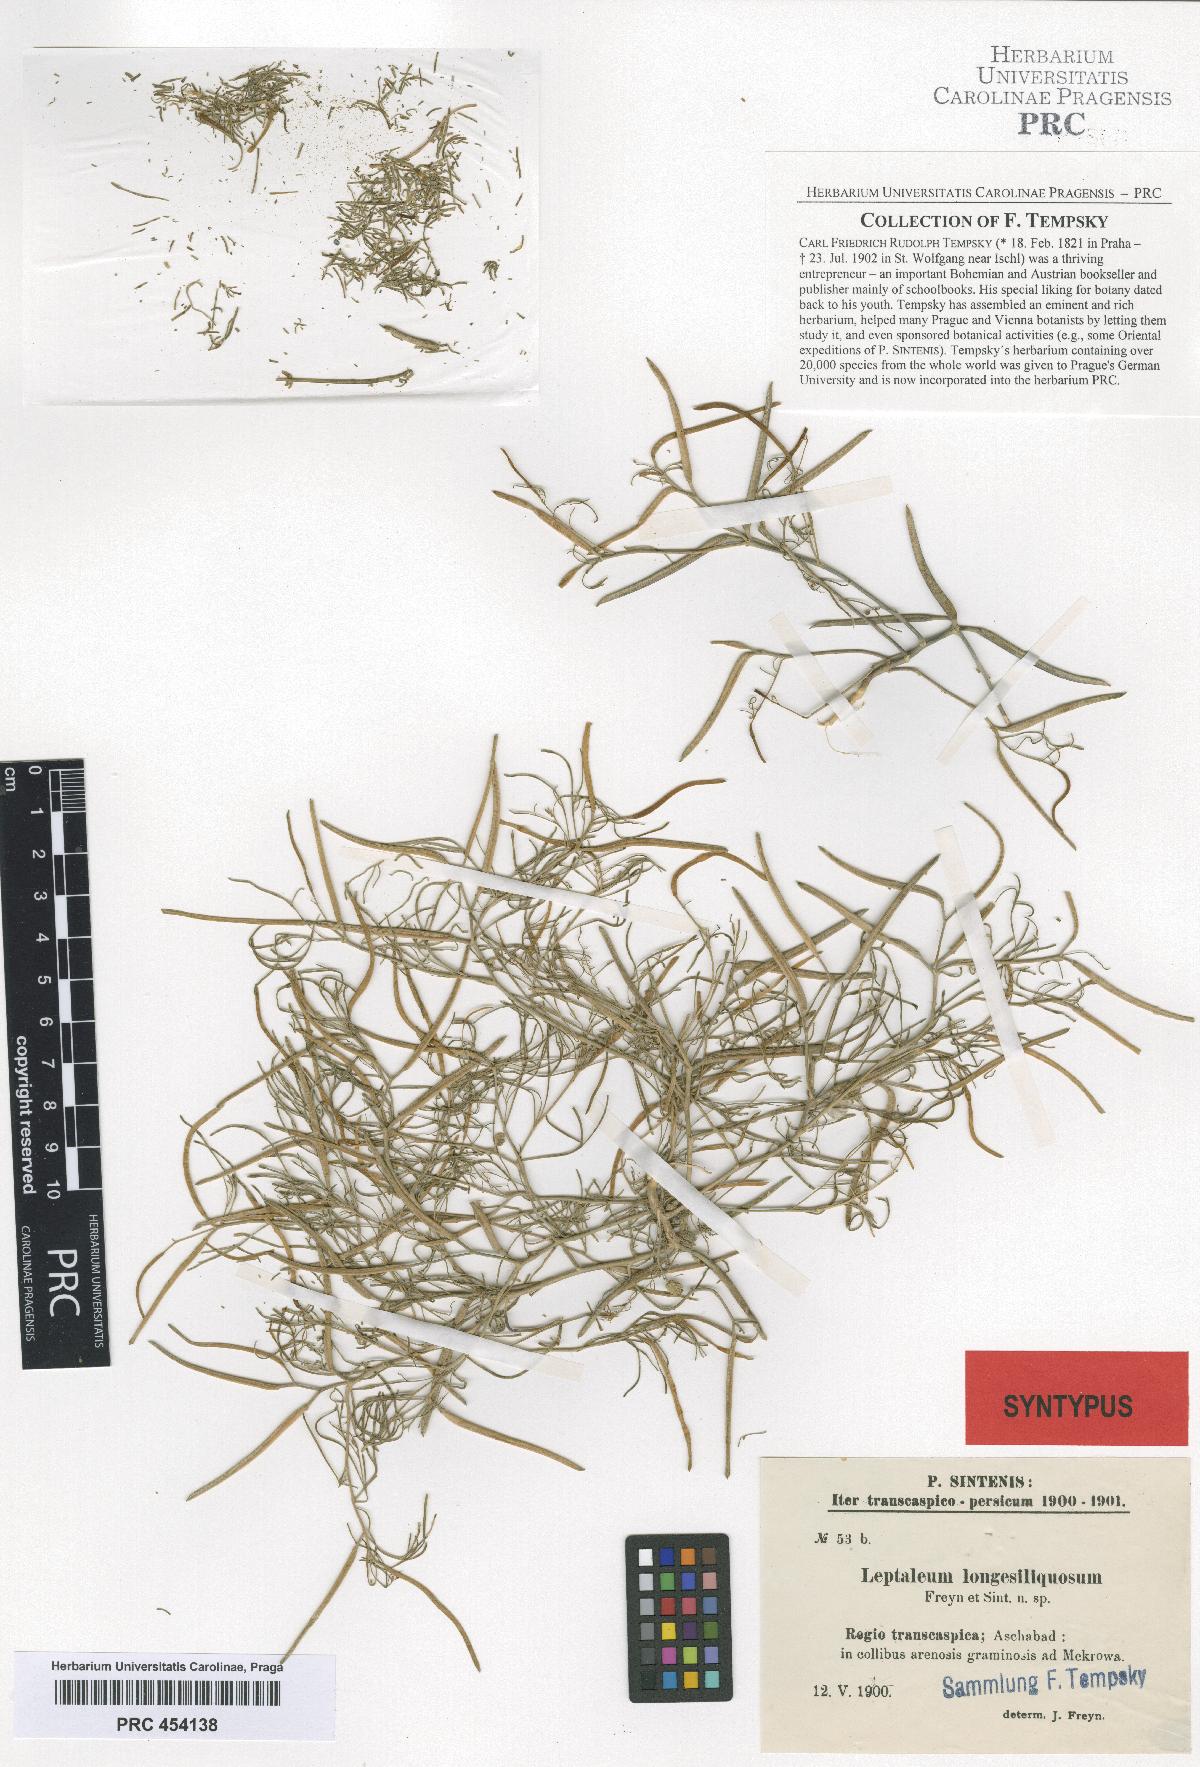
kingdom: Plantae
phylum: Tracheophyta
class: Magnoliopsida
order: Brassicales
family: Brassicaceae
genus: Leptaleum
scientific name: Leptaleum filifolium
